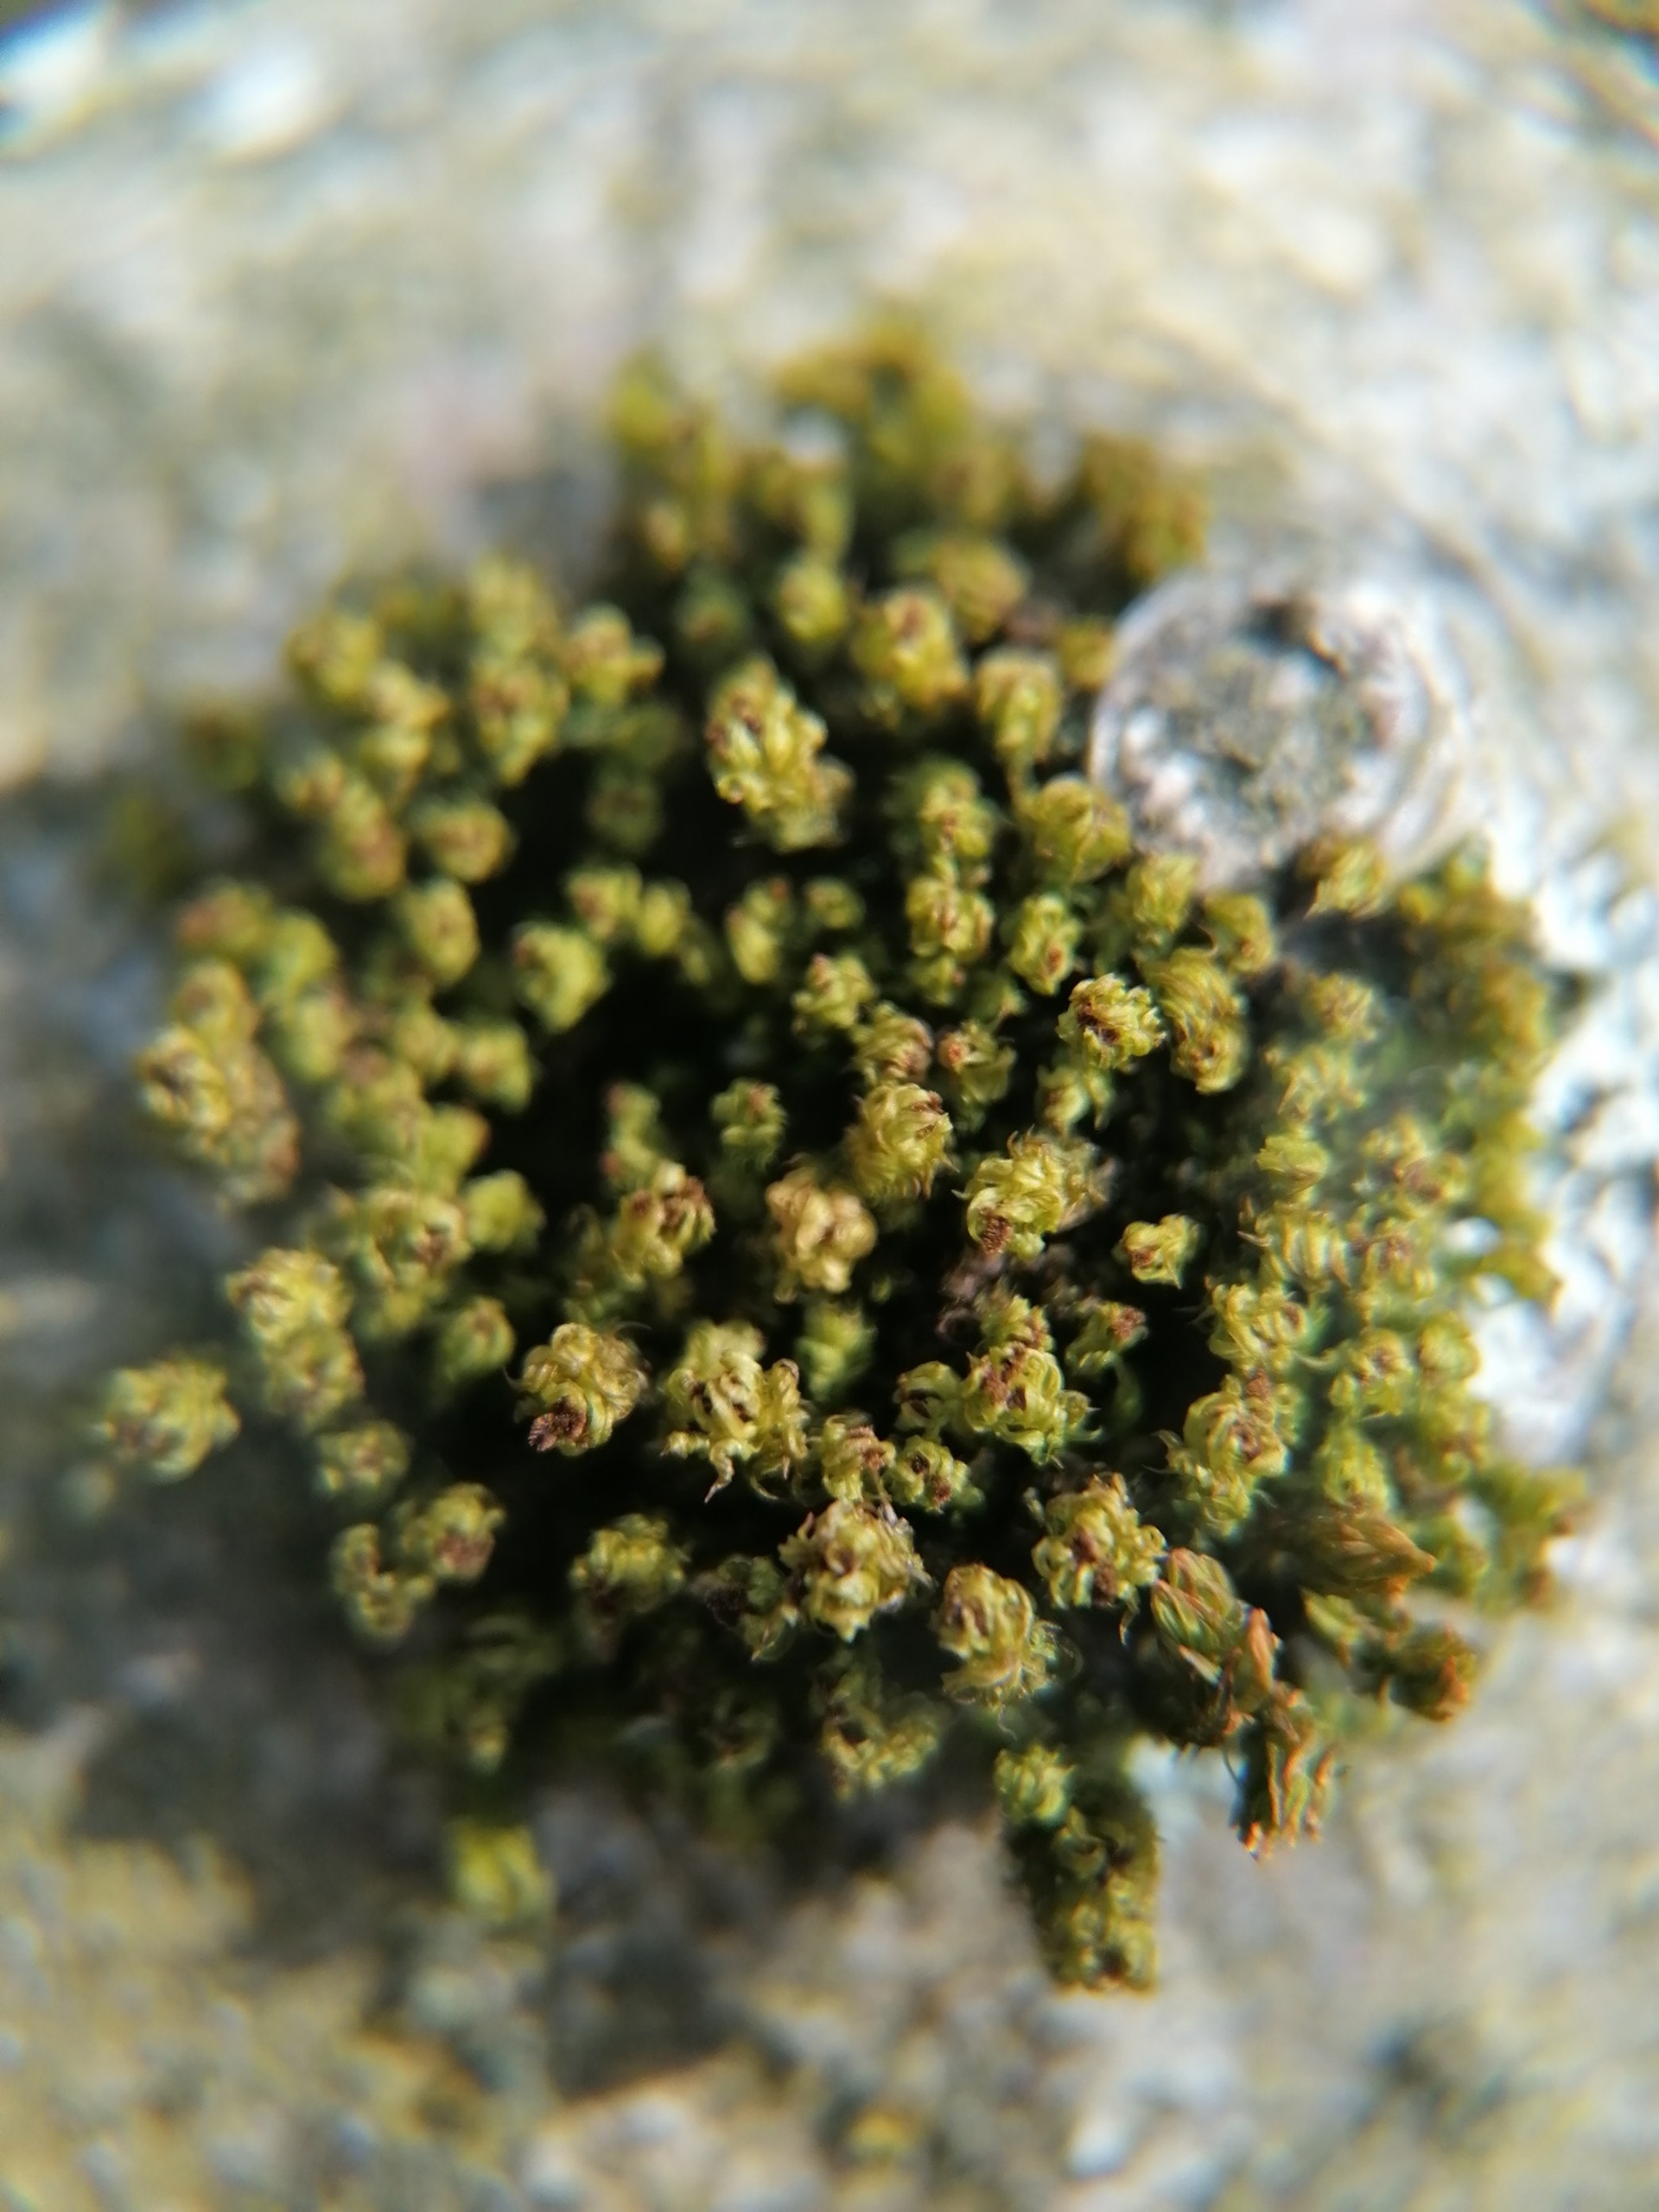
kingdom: Plantae
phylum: Bryophyta
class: Bryopsida
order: Orthotrichales
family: Orthotrichaceae
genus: Plenogemma
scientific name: Plenogemma phyllantha
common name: Stor låddenhætte
